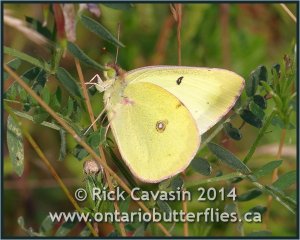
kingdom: Animalia
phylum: Arthropoda
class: Insecta
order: Lepidoptera
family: Pieridae
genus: Colias
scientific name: Colias philodice
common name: Clouded Sulphur
